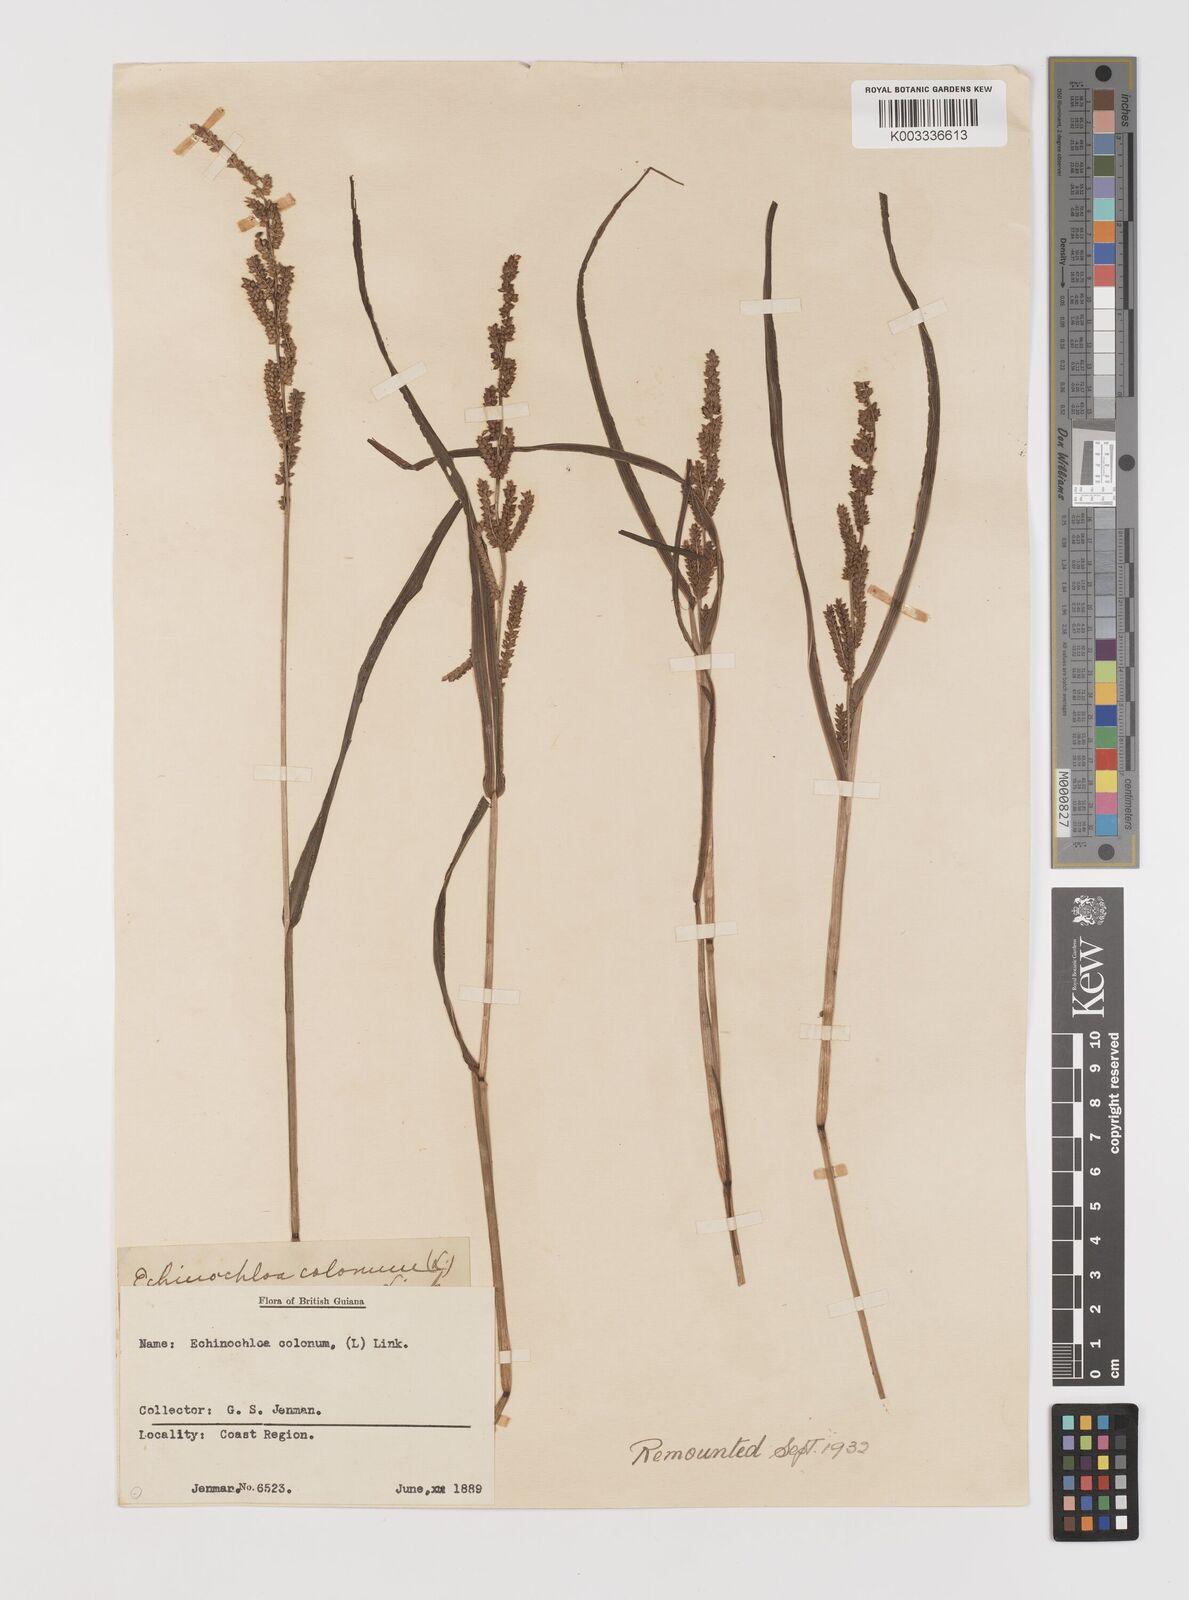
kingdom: Plantae
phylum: Tracheophyta
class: Liliopsida
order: Poales
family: Poaceae
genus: Echinochloa
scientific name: Echinochloa colonum
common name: Jungle rice
